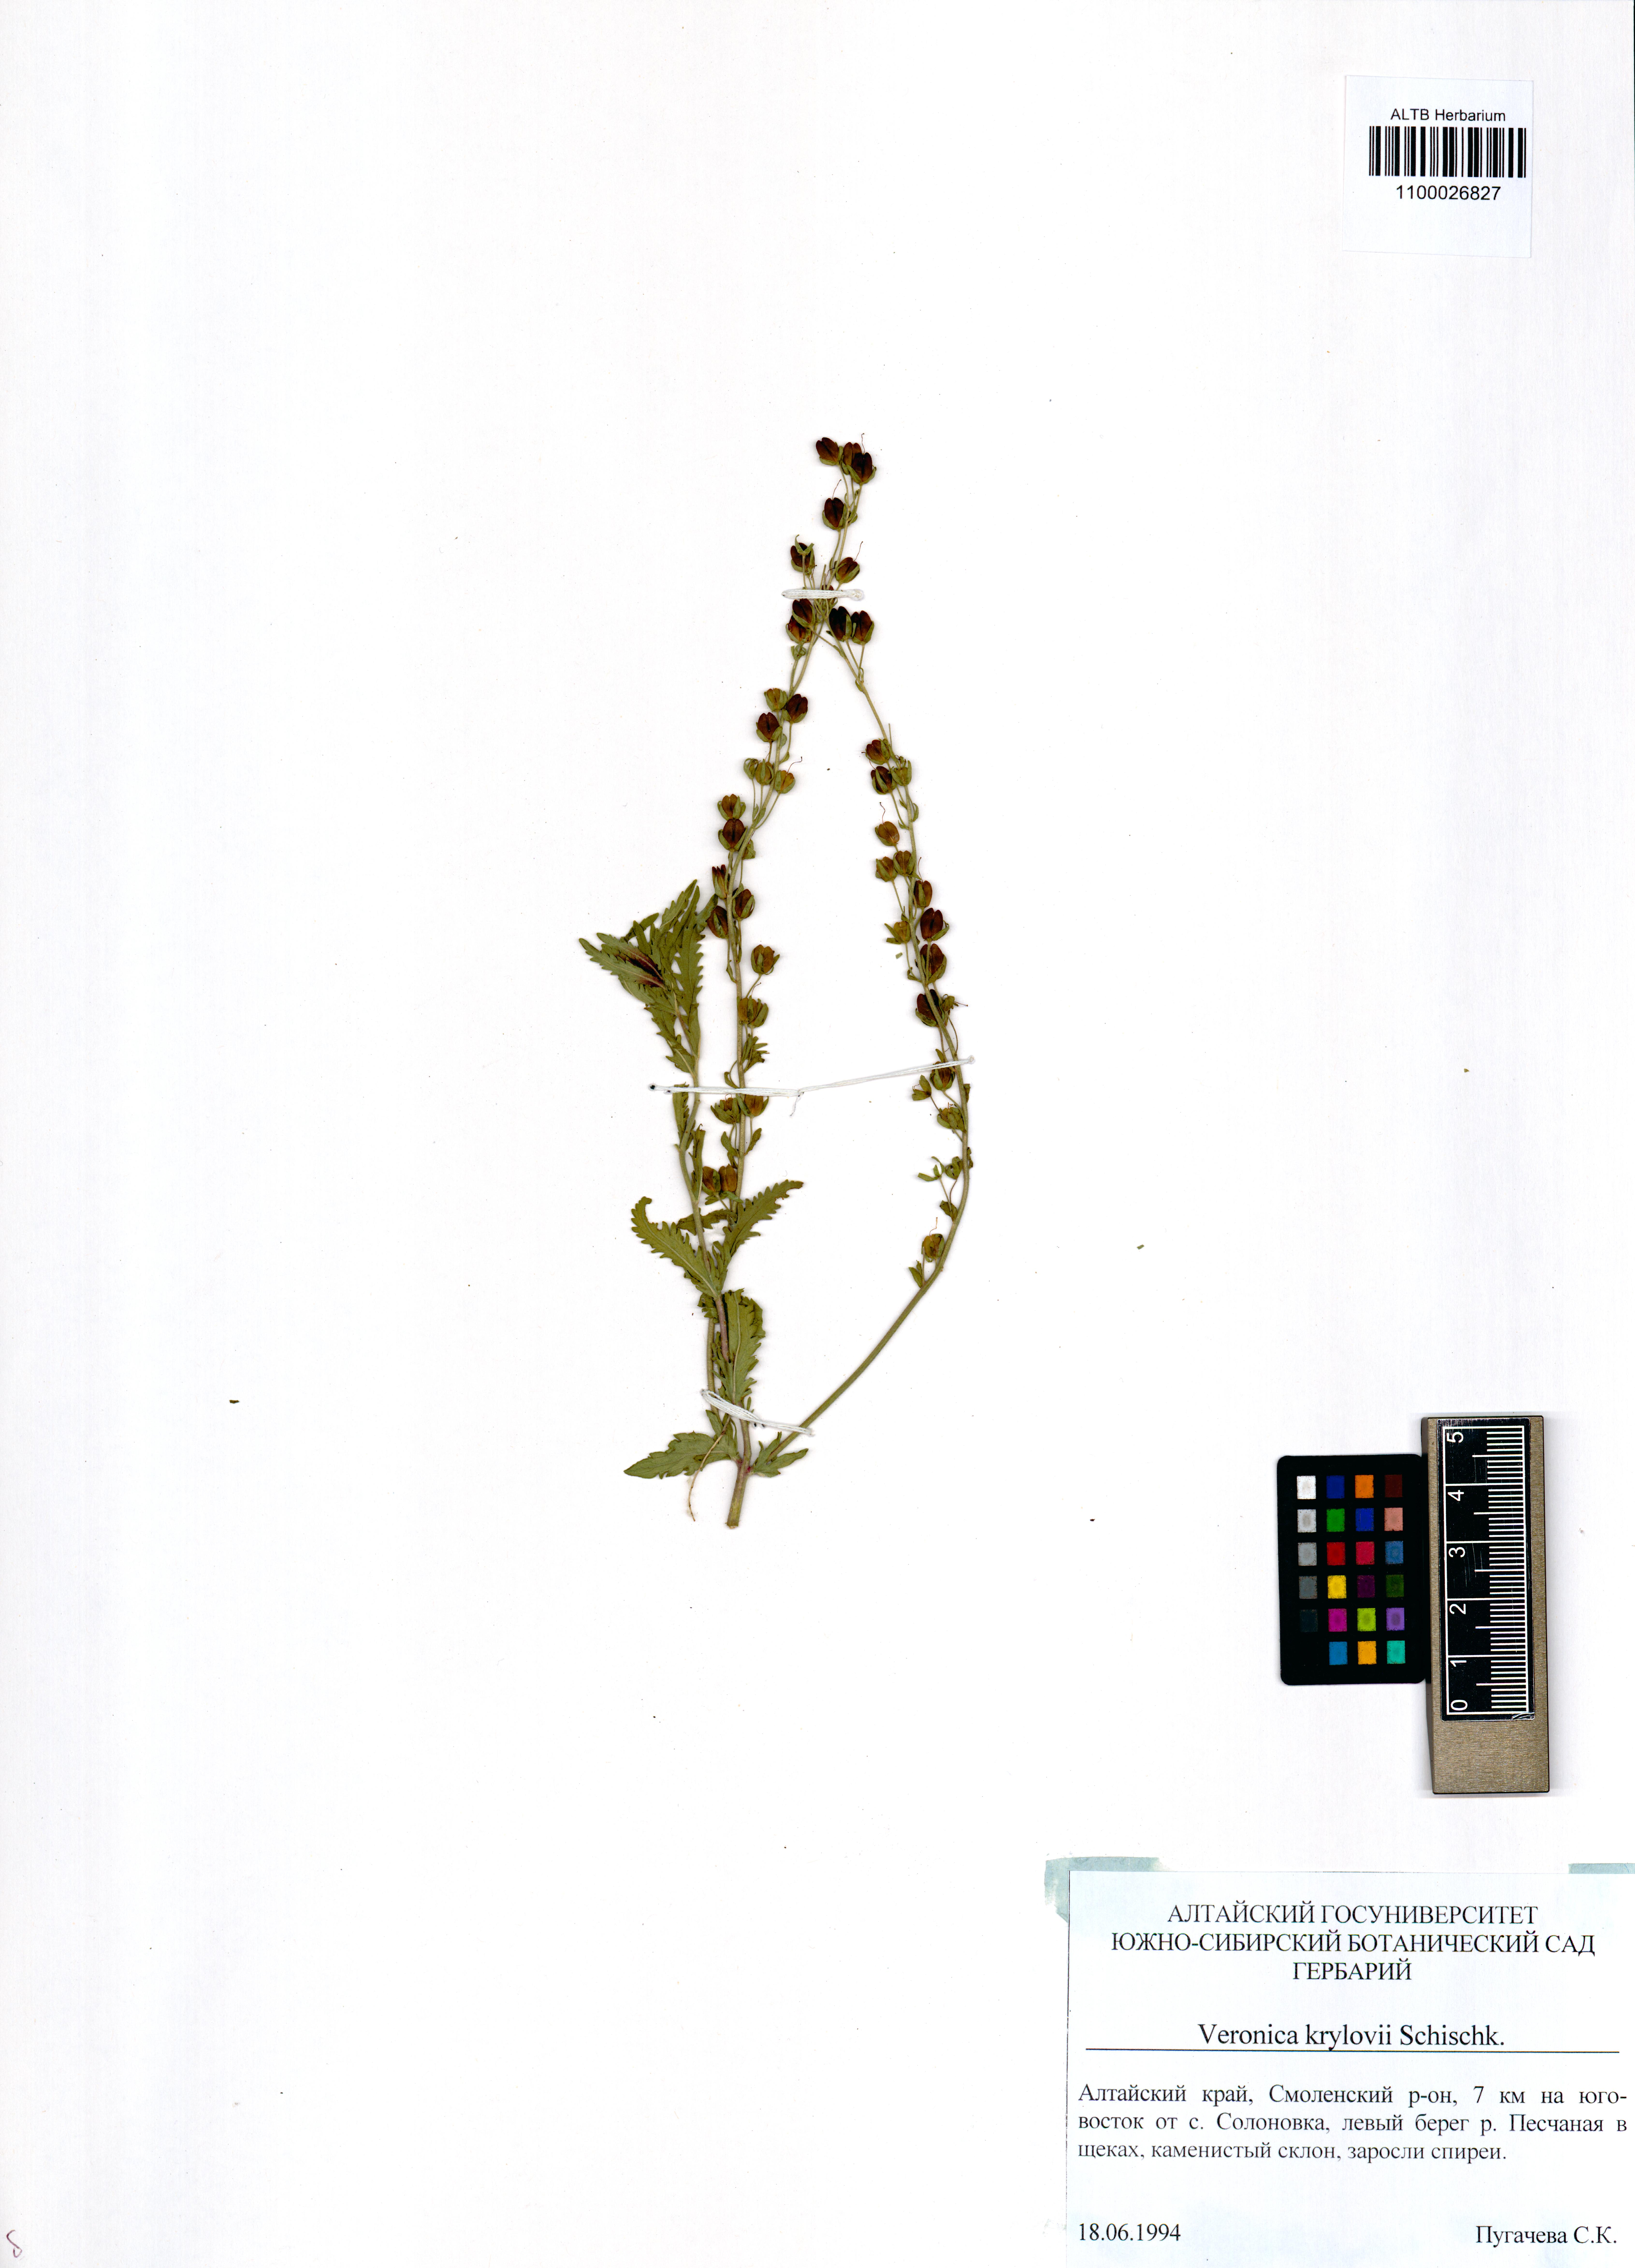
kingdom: Plantae
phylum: Tracheophyta
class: Magnoliopsida
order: Lamiales
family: Plantaginaceae
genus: Veronica
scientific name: Veronica krylovii
